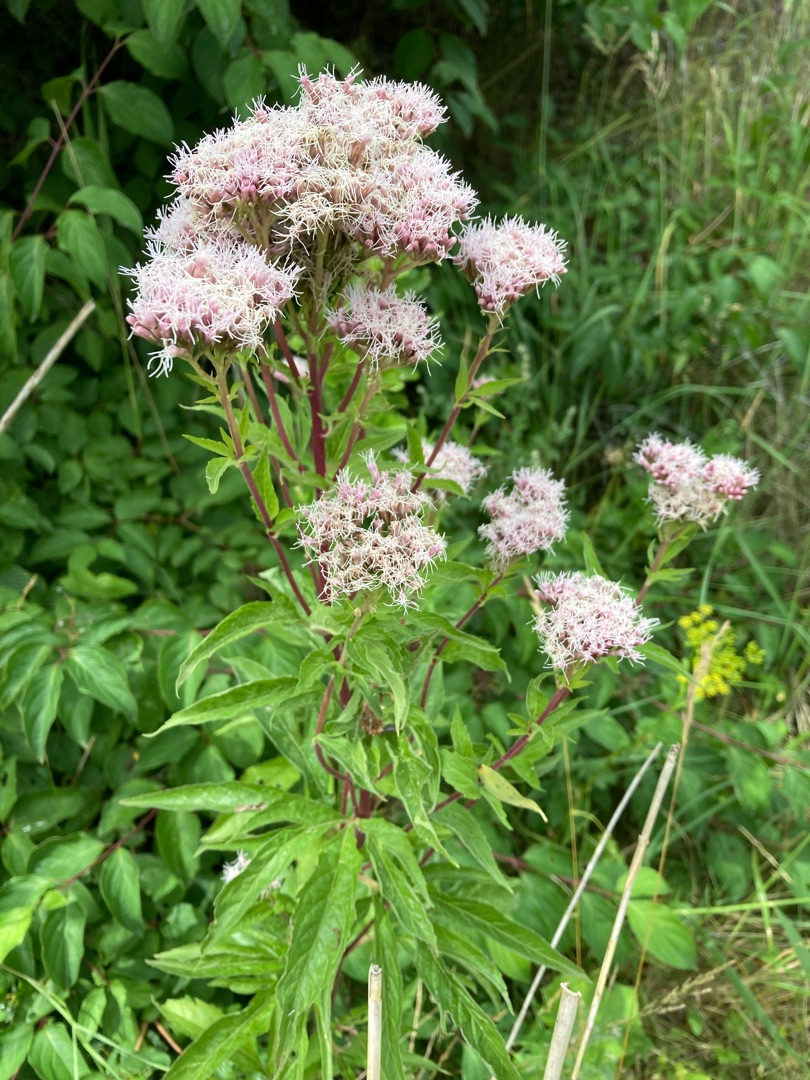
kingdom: Plantae
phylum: Tracheophyta
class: Magnoliopsida
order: Asterales
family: Asteraceae
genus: Eupatorium
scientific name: Eupatorium cannabinum
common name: Hjortetrøst
